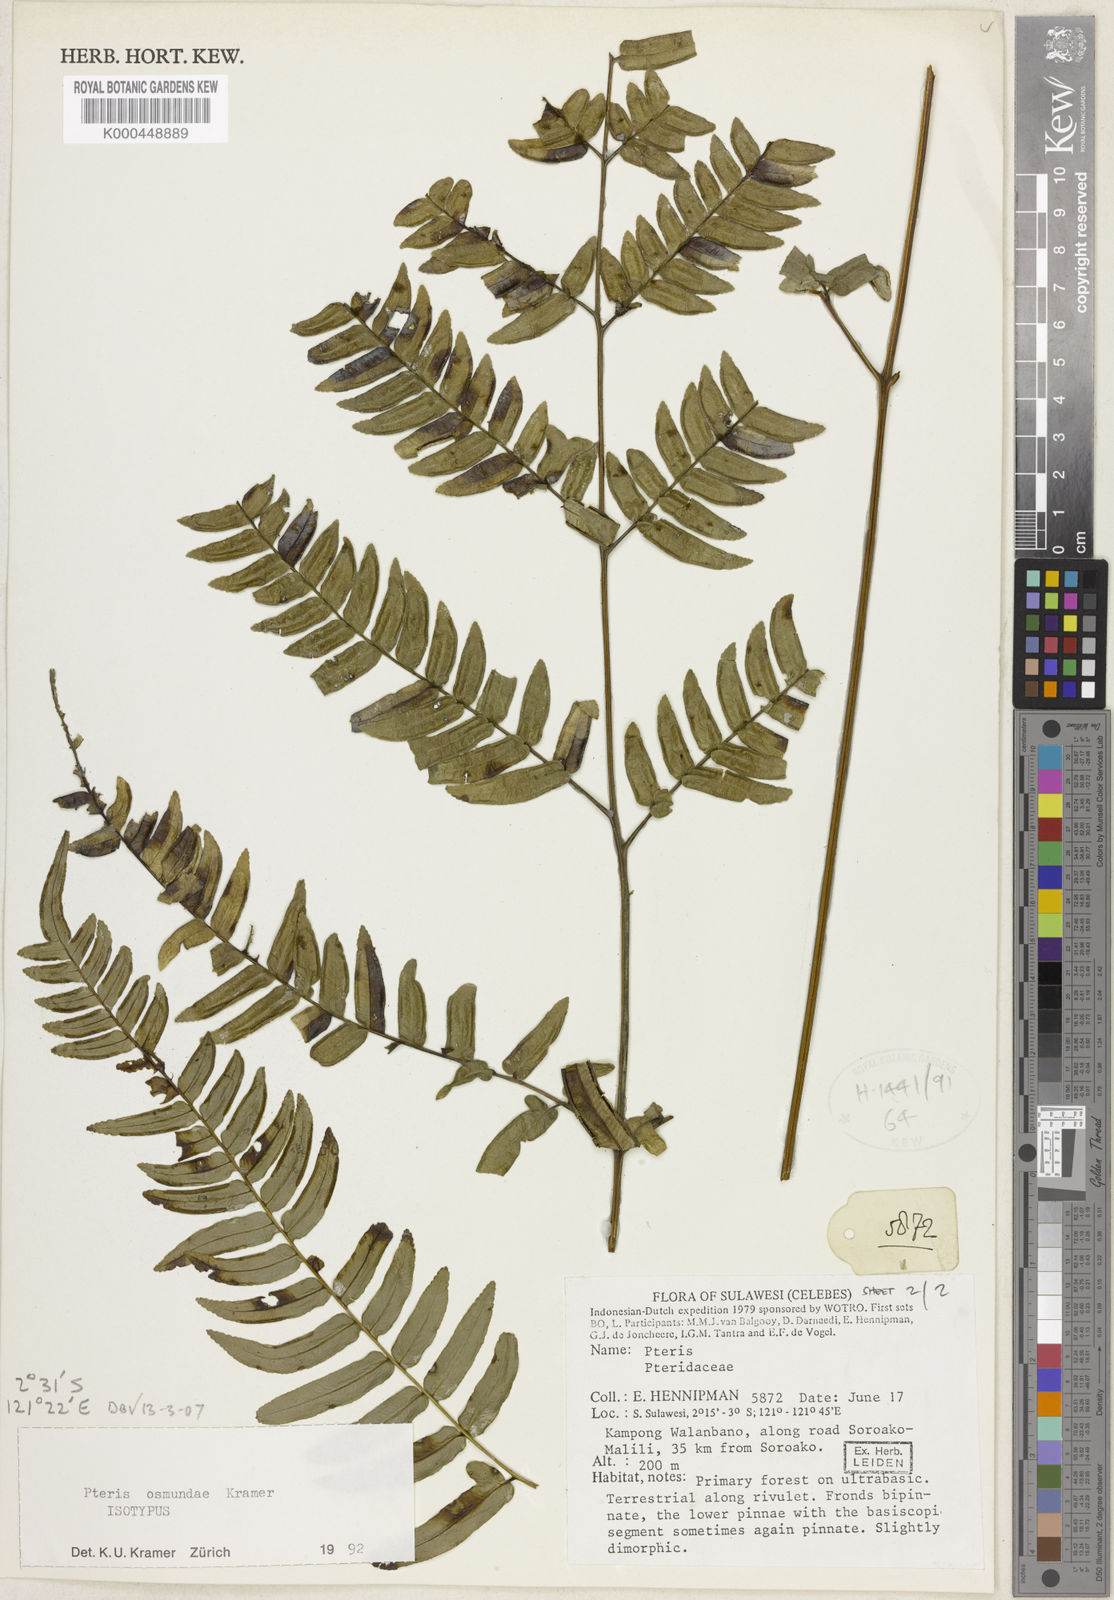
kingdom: Plantae
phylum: Tracheophyta
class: Polypodiopsida
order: Polypodiales
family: Pteridaceae
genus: Pteris
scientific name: Pteris
